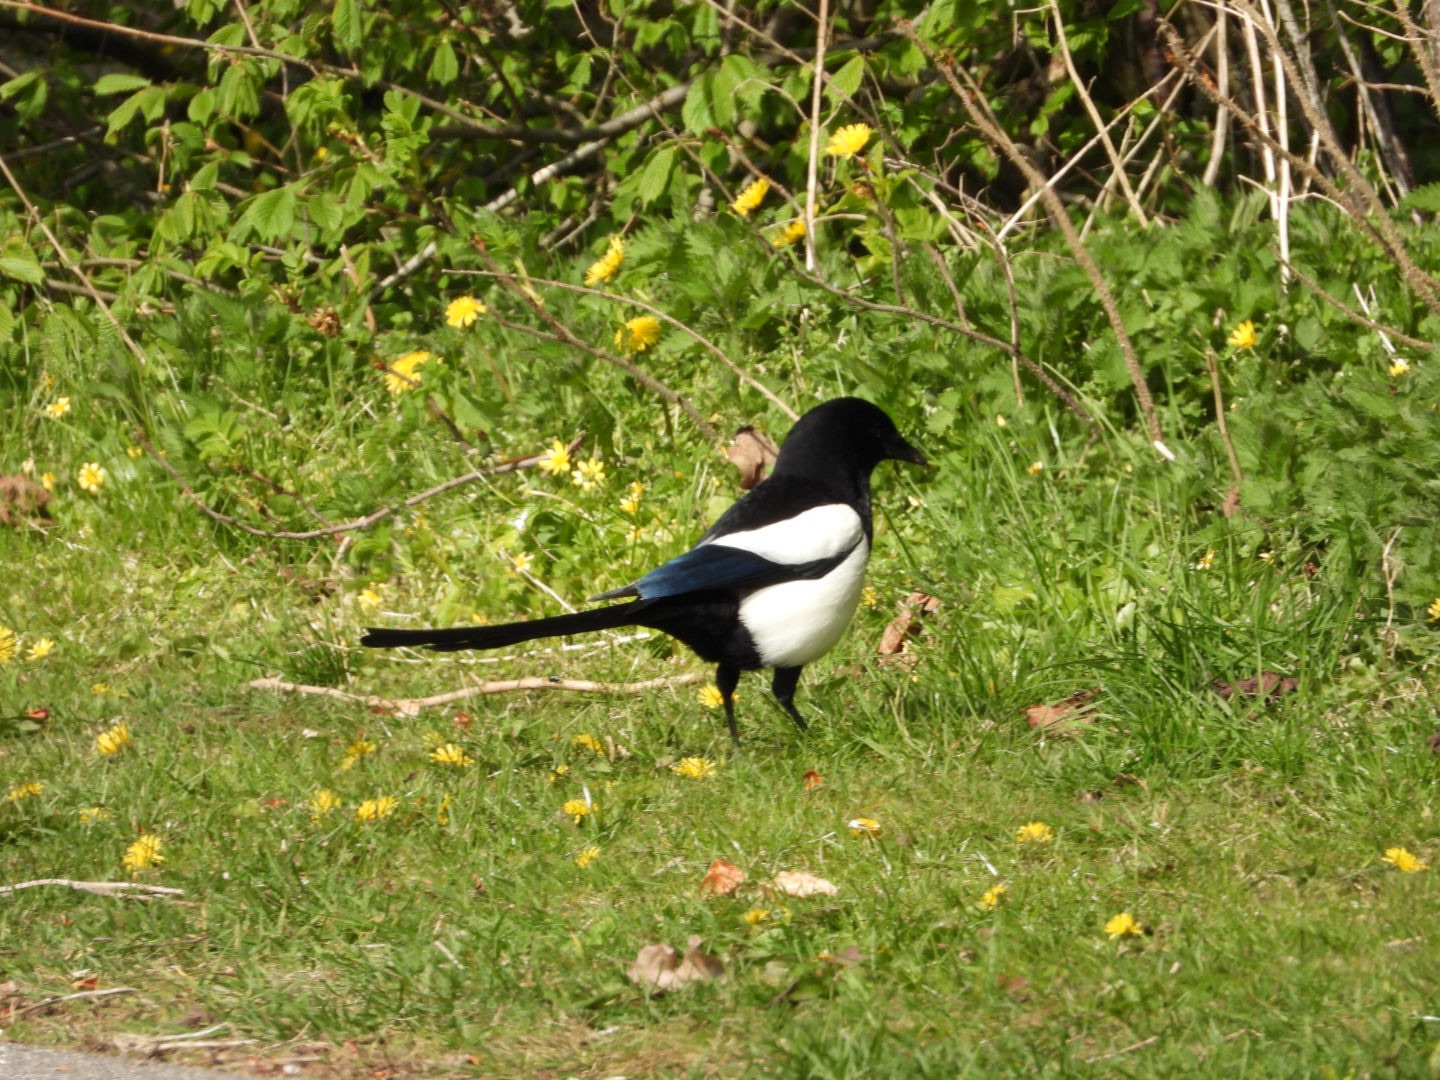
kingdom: Animalia
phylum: Chordata
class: Aves
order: Passeriformes
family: Corvidae
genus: Pica
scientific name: Pica pica
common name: Husskade
